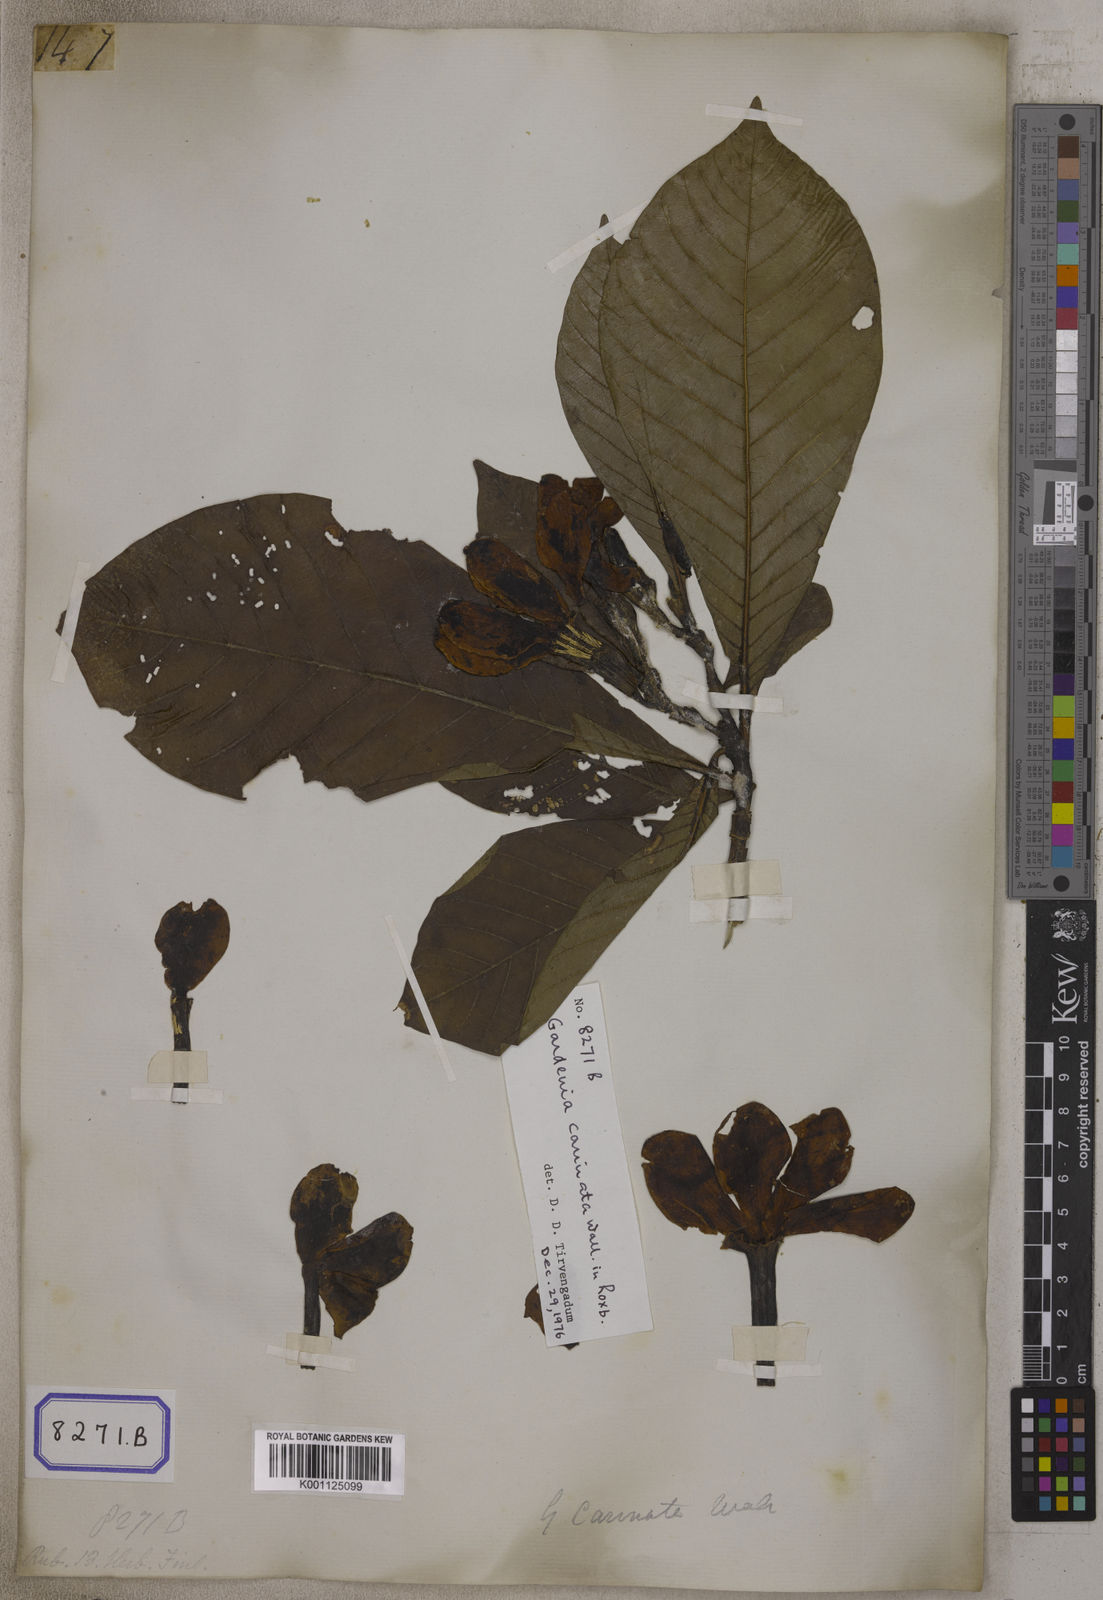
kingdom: Plantae
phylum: Tracheophyta
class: Magnoliopsida
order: Gentianales
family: Rubiaceae
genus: Gardenia
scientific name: Gardenia
